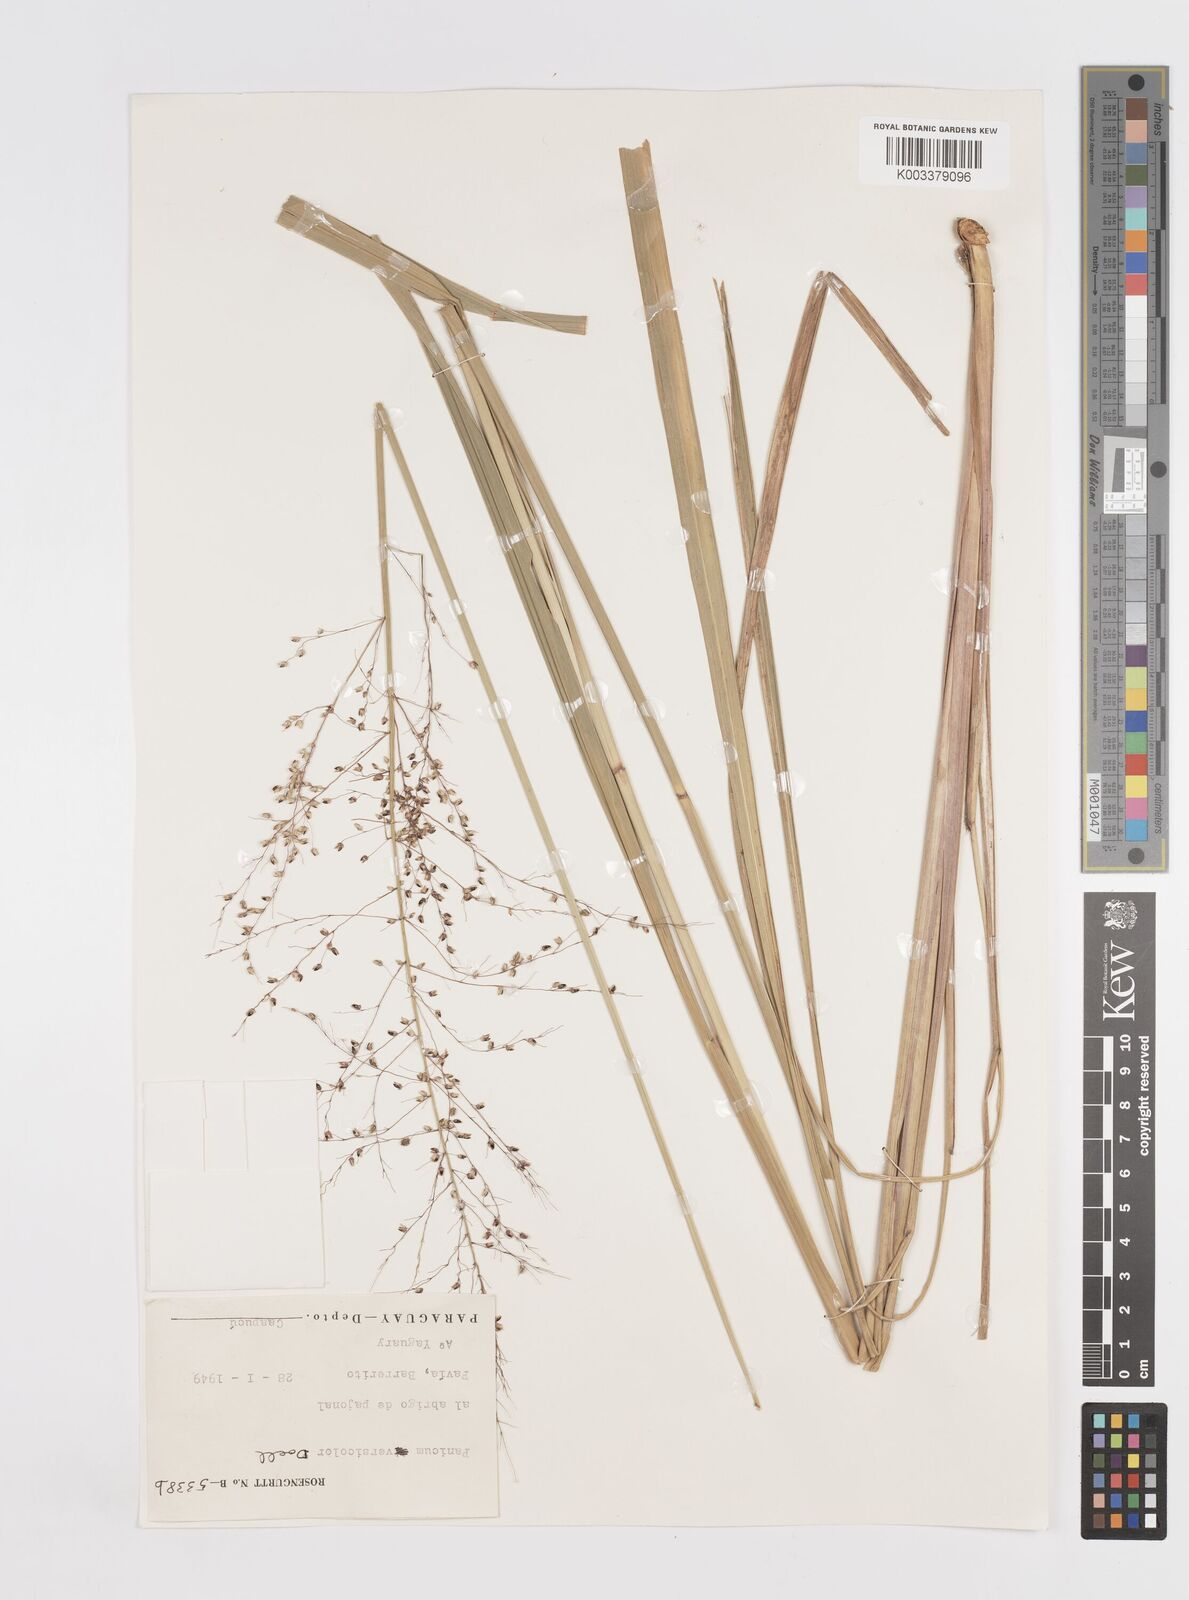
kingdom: Plantae
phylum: Tracheophyta
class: Liliopsida
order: Poales
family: Poaceae
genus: Otachyrium
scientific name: Otachyrium versicolor
